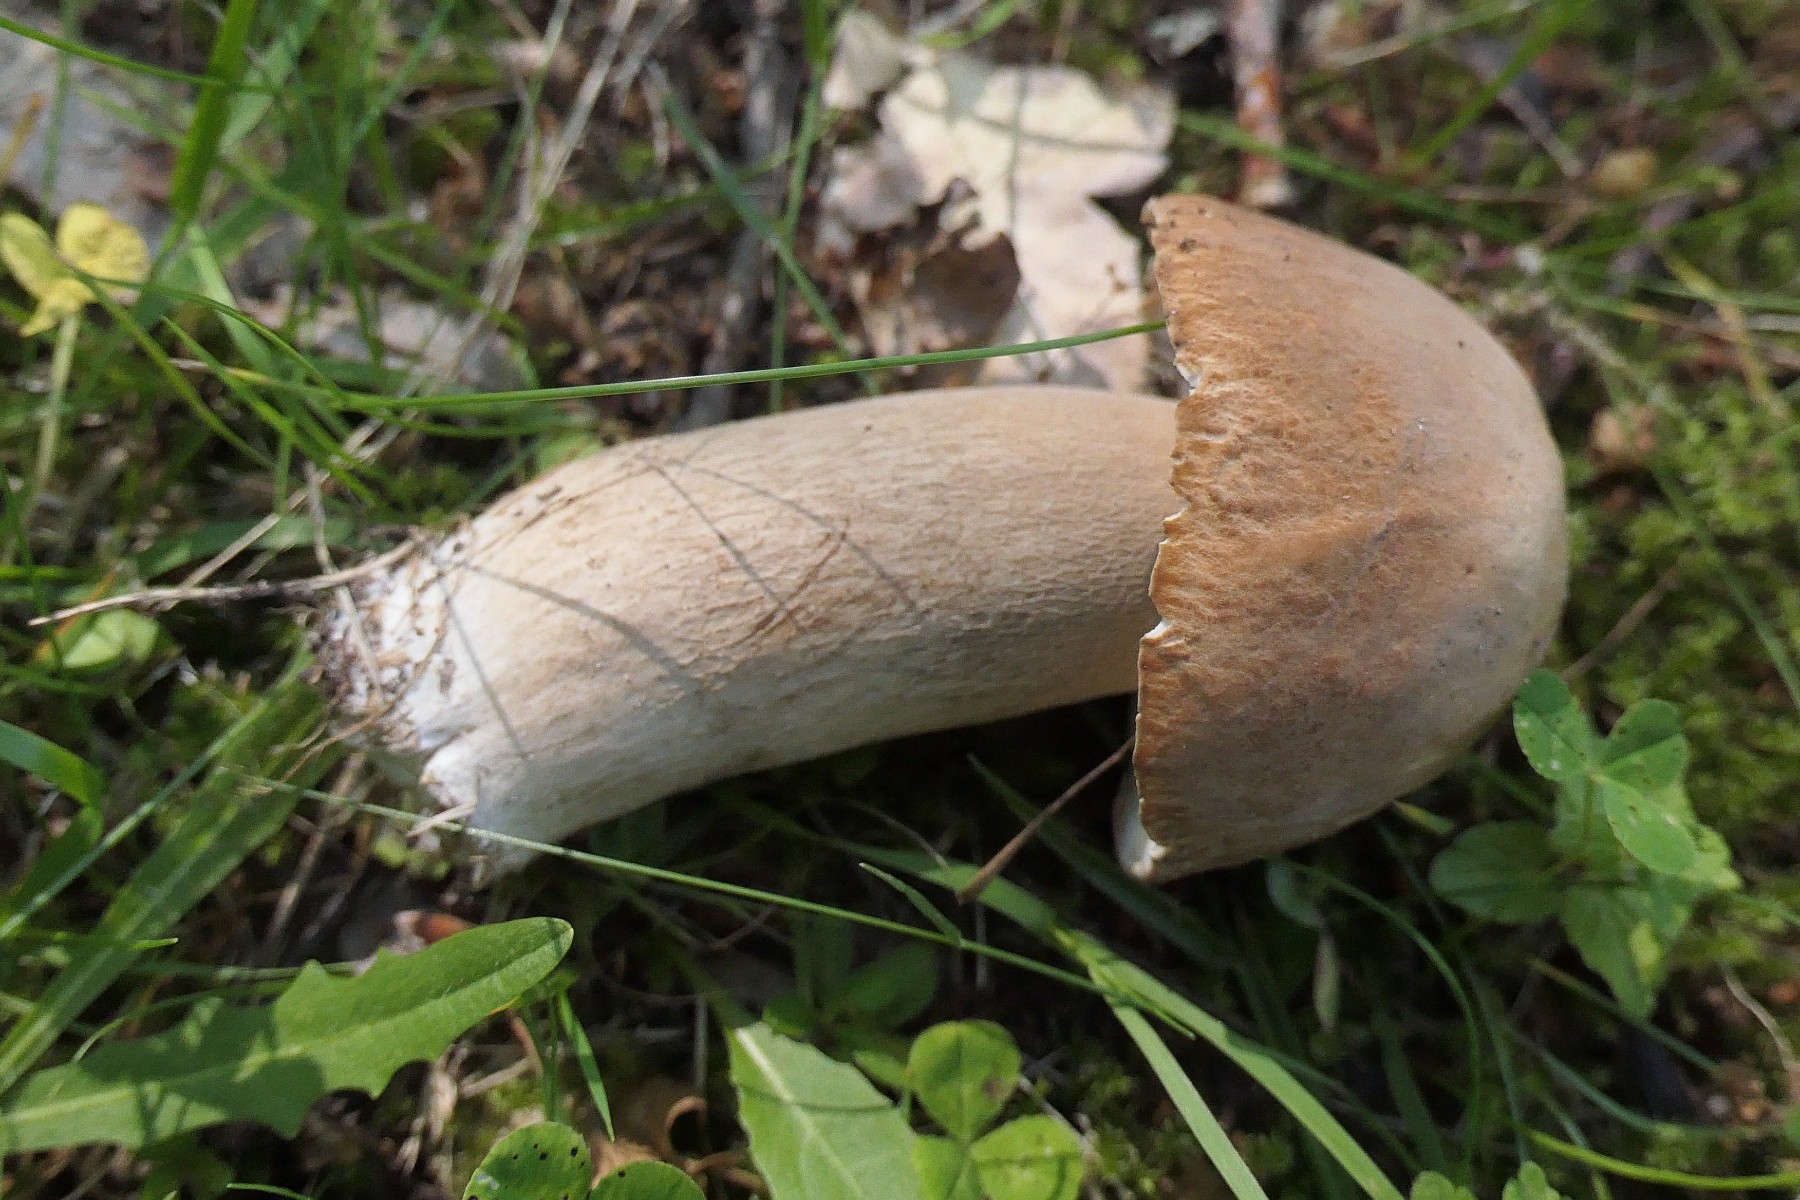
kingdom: Fungi
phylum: Basidiomycota
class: Agaricomycetes
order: Boletales
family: Boletaceae
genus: Boletus
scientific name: Boletus reticulatus
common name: sommer-rørhat
